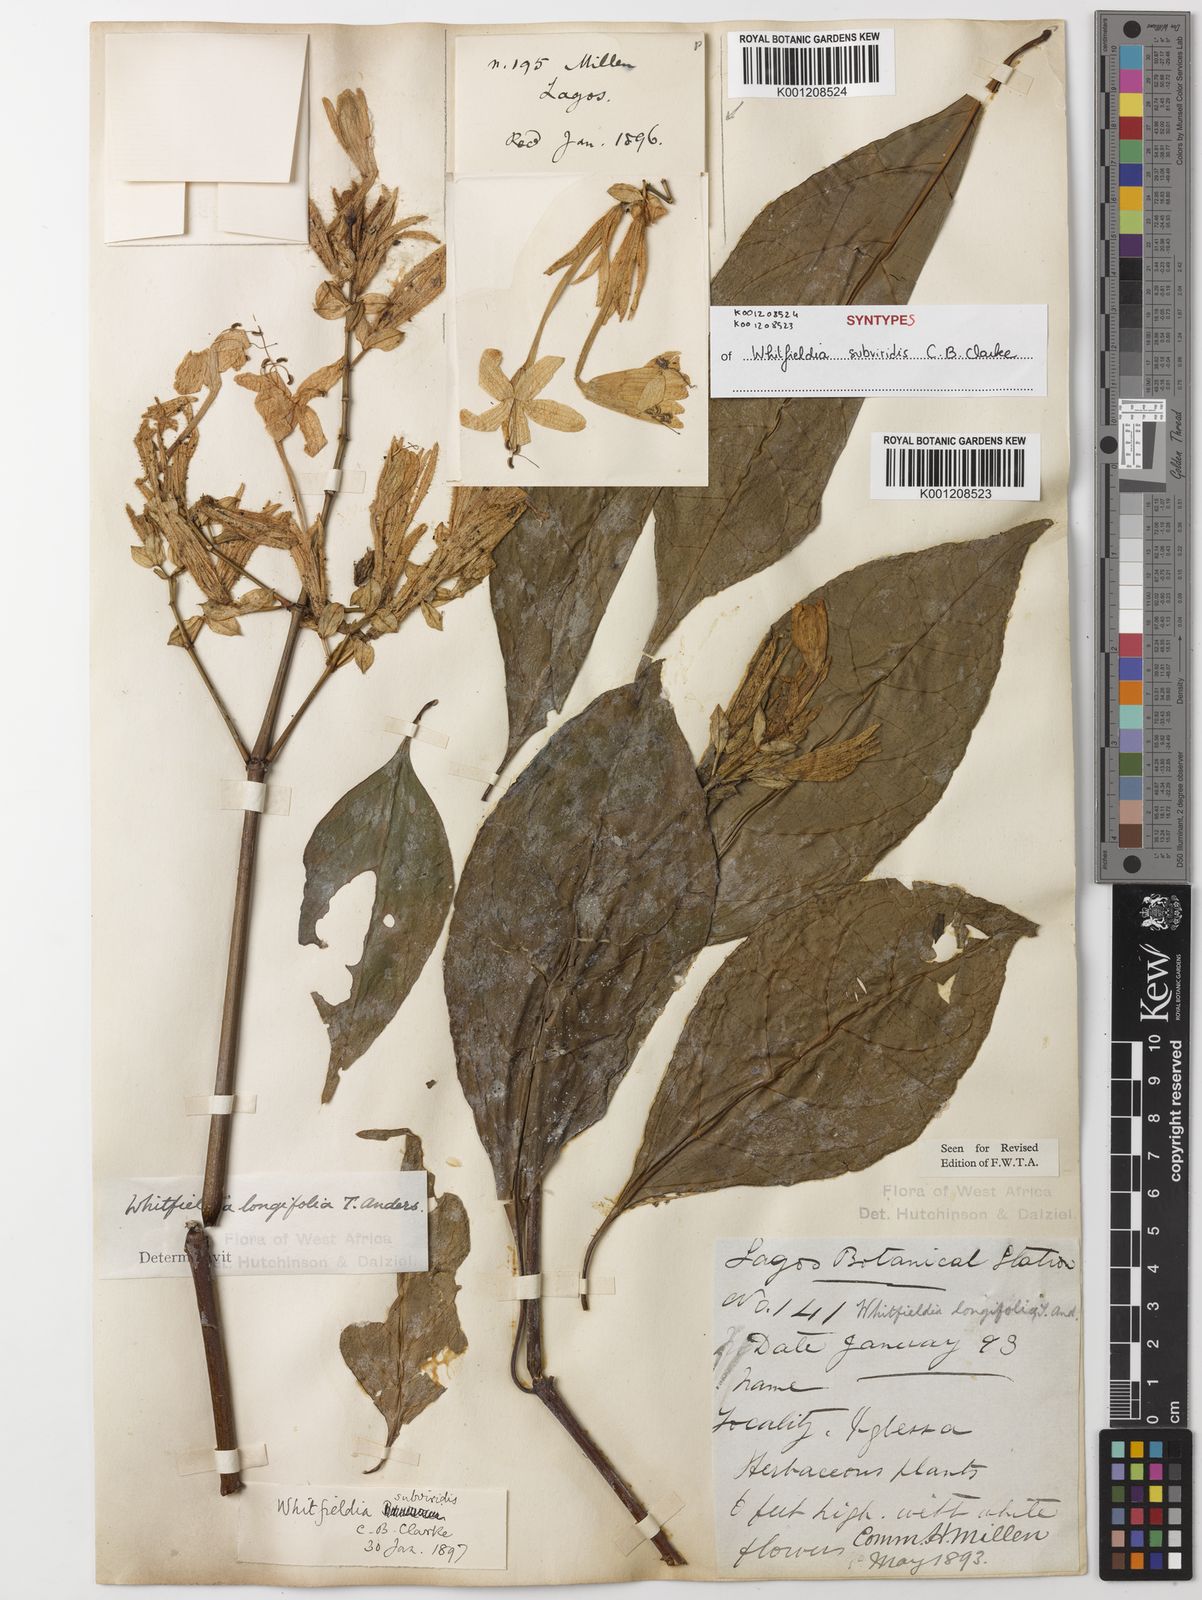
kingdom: Plantae
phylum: Tracheophyta
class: Magnoliopsida
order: Lamiales
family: Acanthaceae
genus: Whitfieldia
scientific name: Whitfieldia
